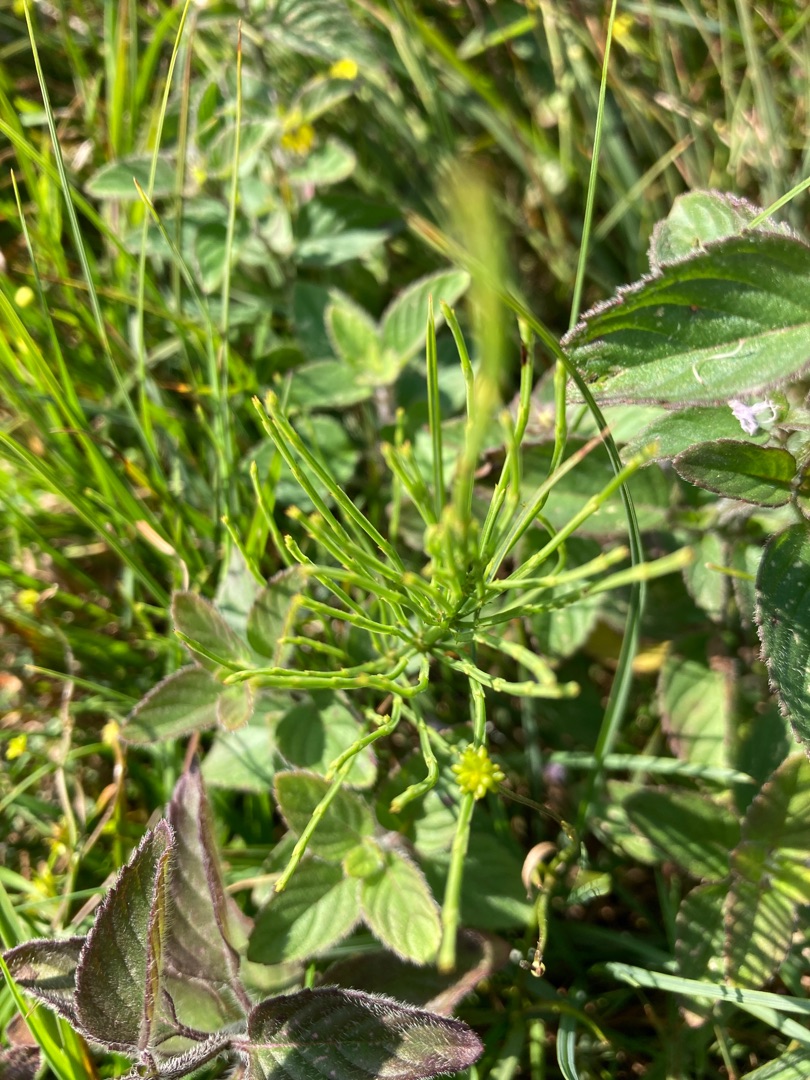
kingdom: Plantae
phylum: Tracheophyta
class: Polypodiopsida
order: Equisetales
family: Equisetaceae
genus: Equisetum
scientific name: Equisetum arvense
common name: Ager-padderok
